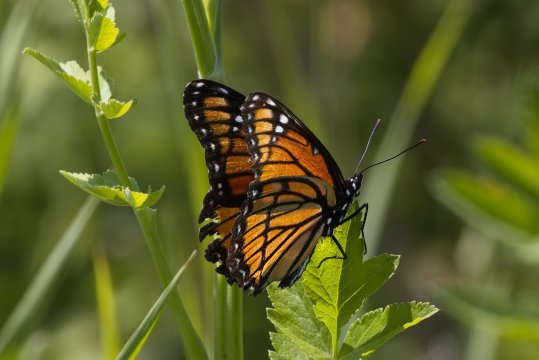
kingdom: Animalia
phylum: Arthropoda
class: Insecta
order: Lepidoptera
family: Nymphalidae
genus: Limenitis
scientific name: Limenitis archippus
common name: Viceroy
